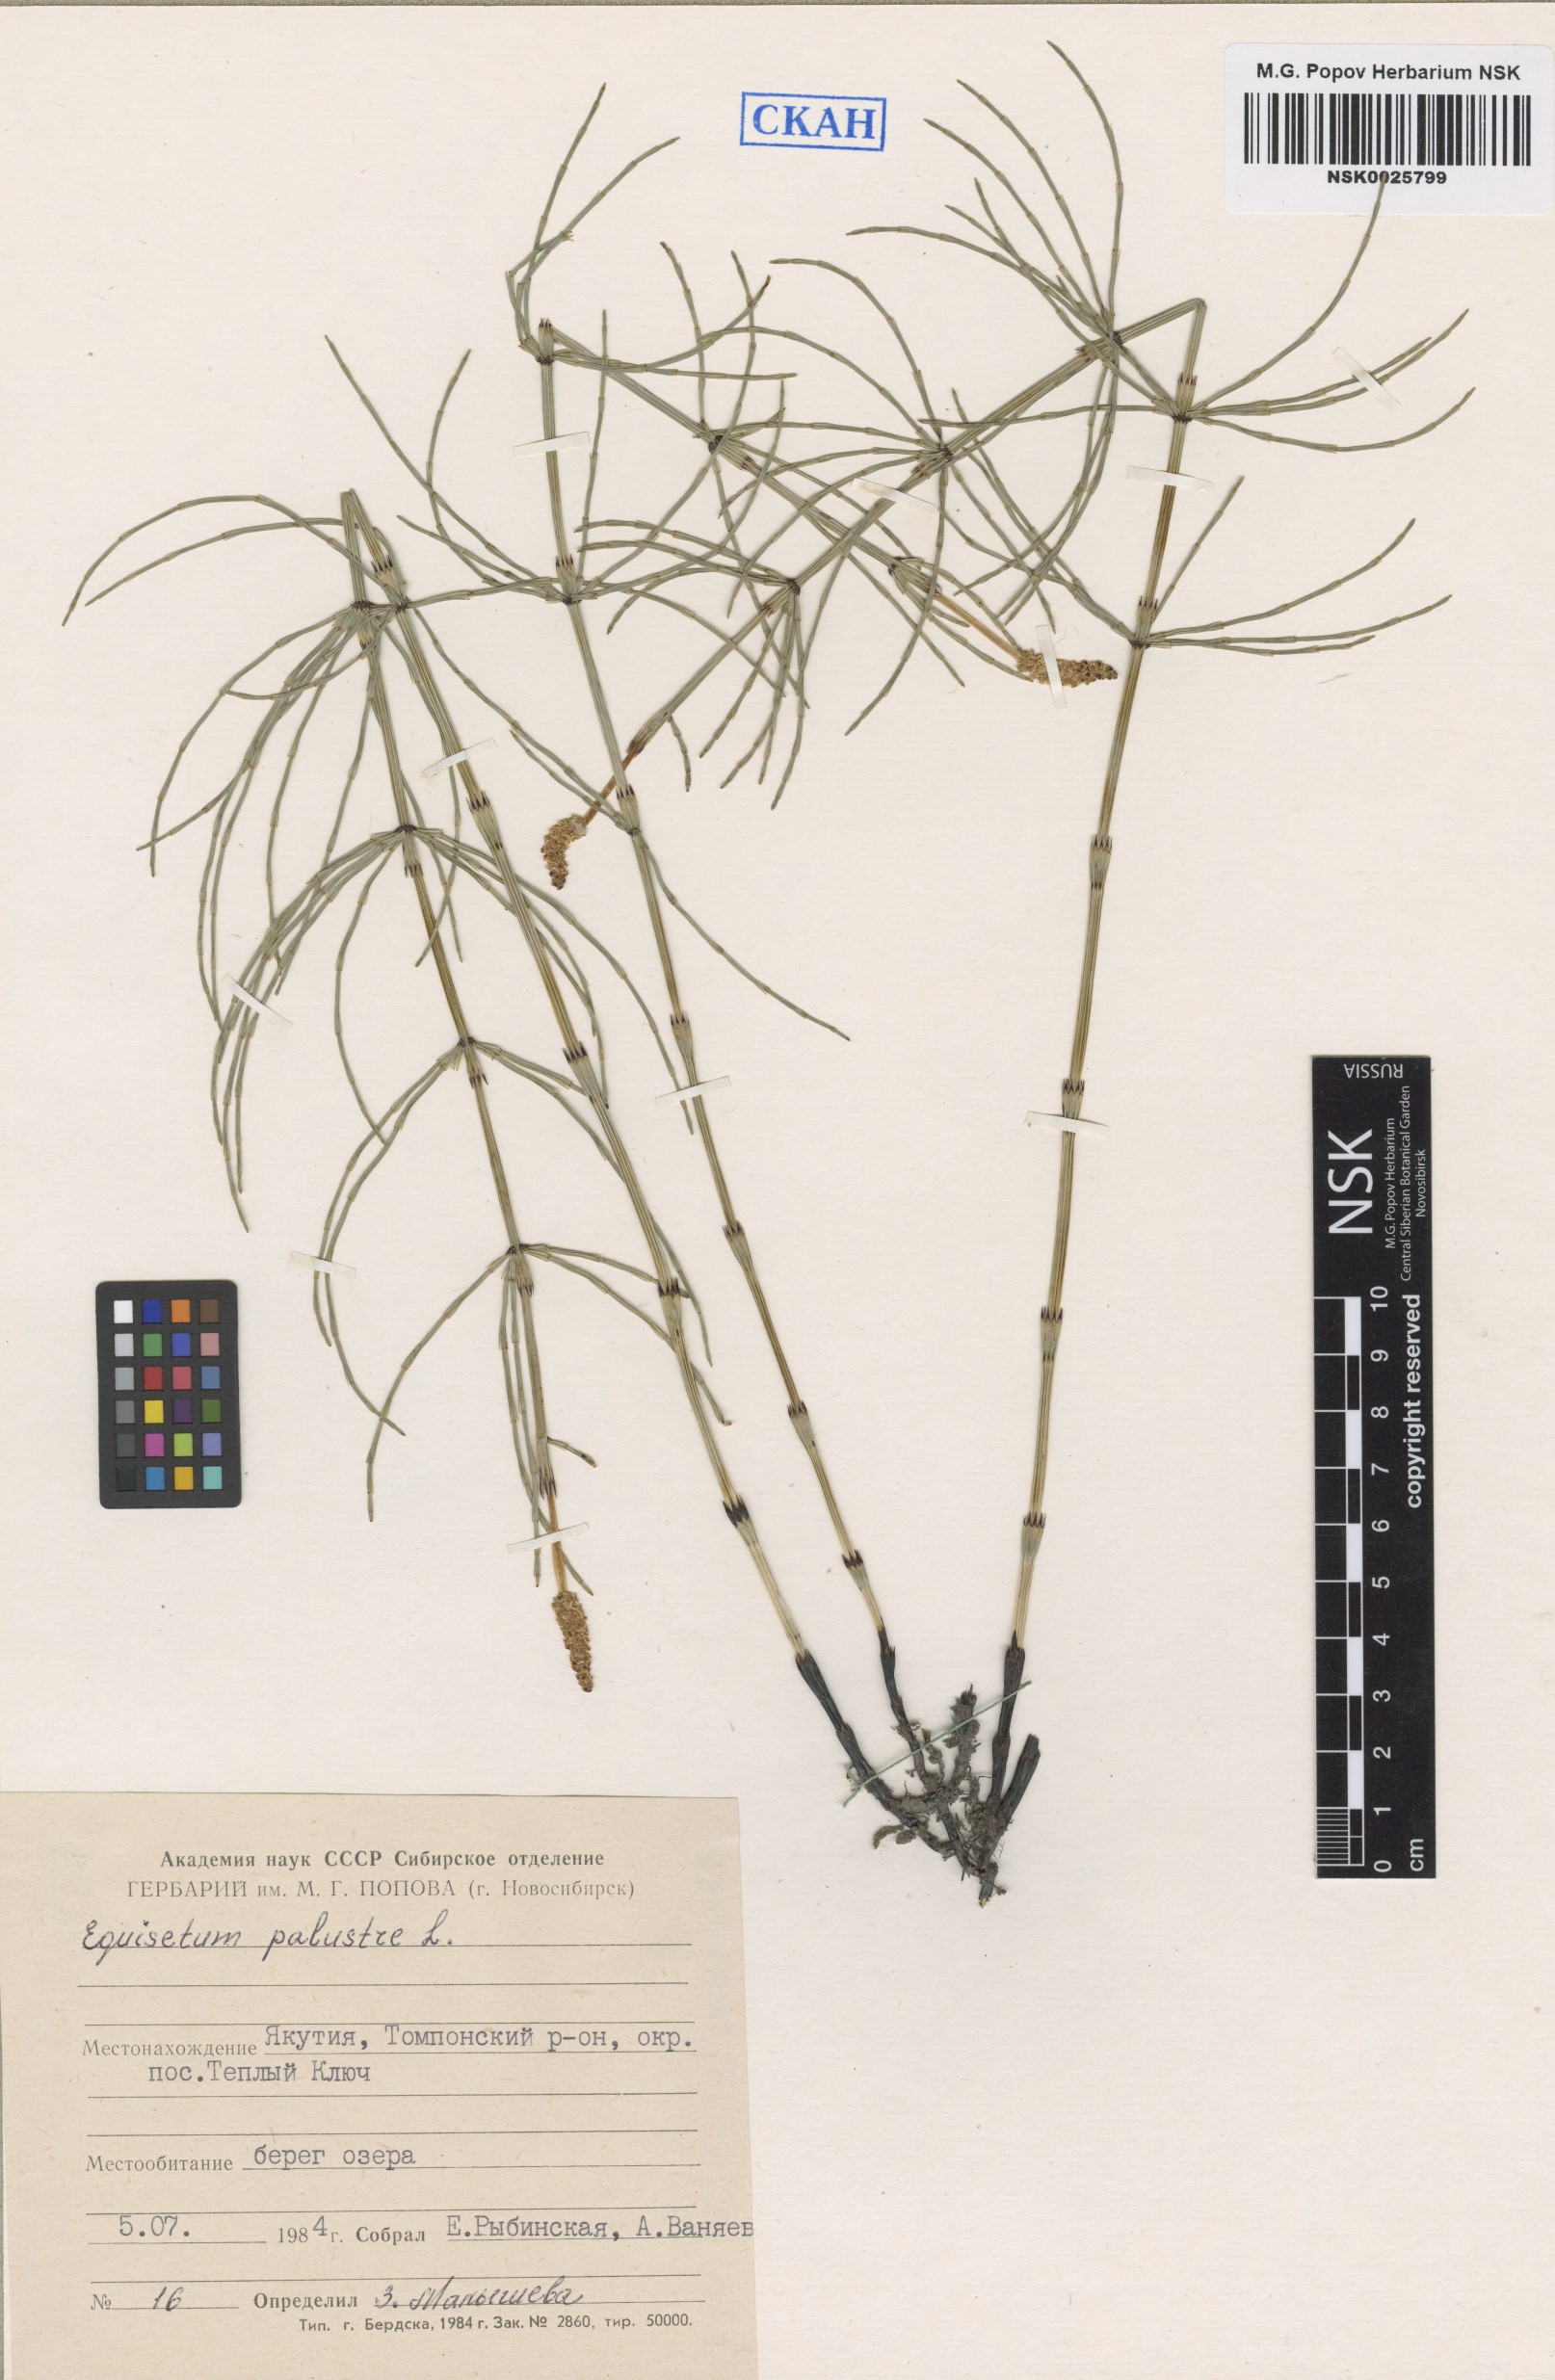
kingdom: Plantae
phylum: Tracheophyta
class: Polypodiopsida
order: Equisetales
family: Equisetaceae
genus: Equisetum
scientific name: Equisetum palustre
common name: Marsh horsetail
